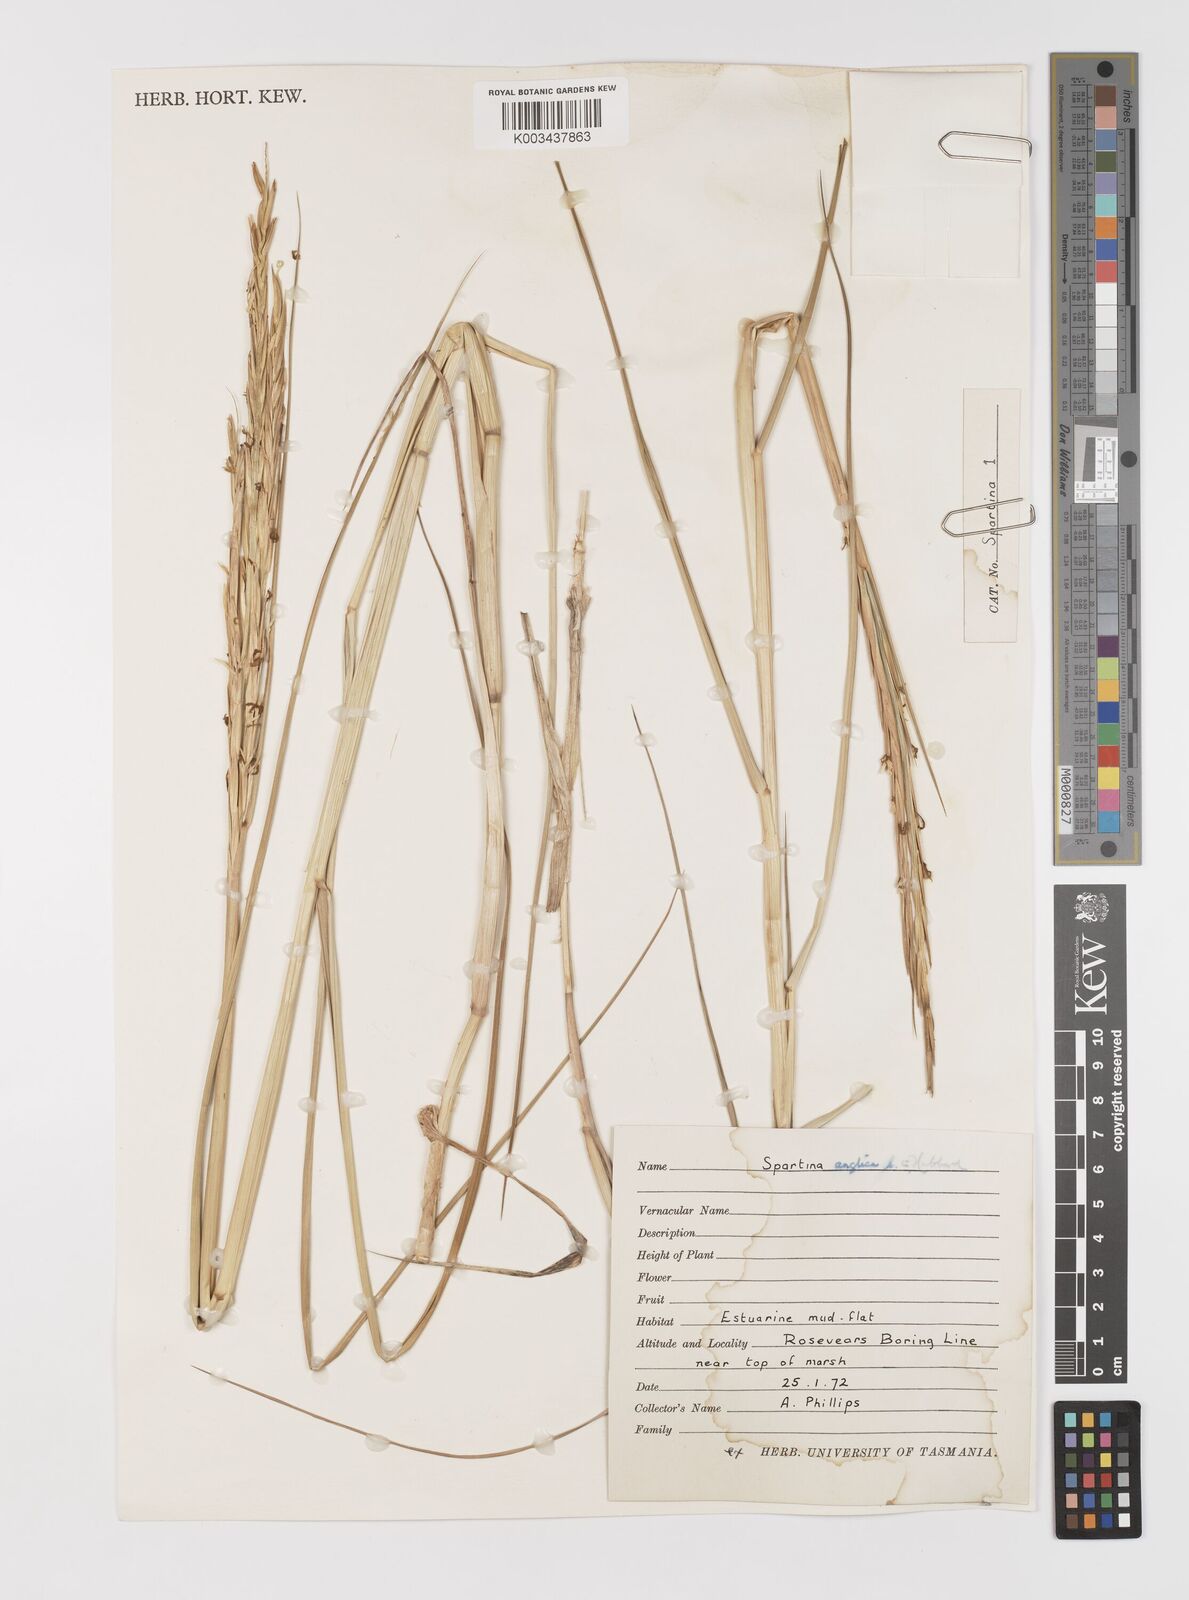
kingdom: Plantae
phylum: Tracheophyta
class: Liliopsida
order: Poales
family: Poaceae
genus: Sporobolus
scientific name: Sporobolus anglicus
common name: English cordgrass
